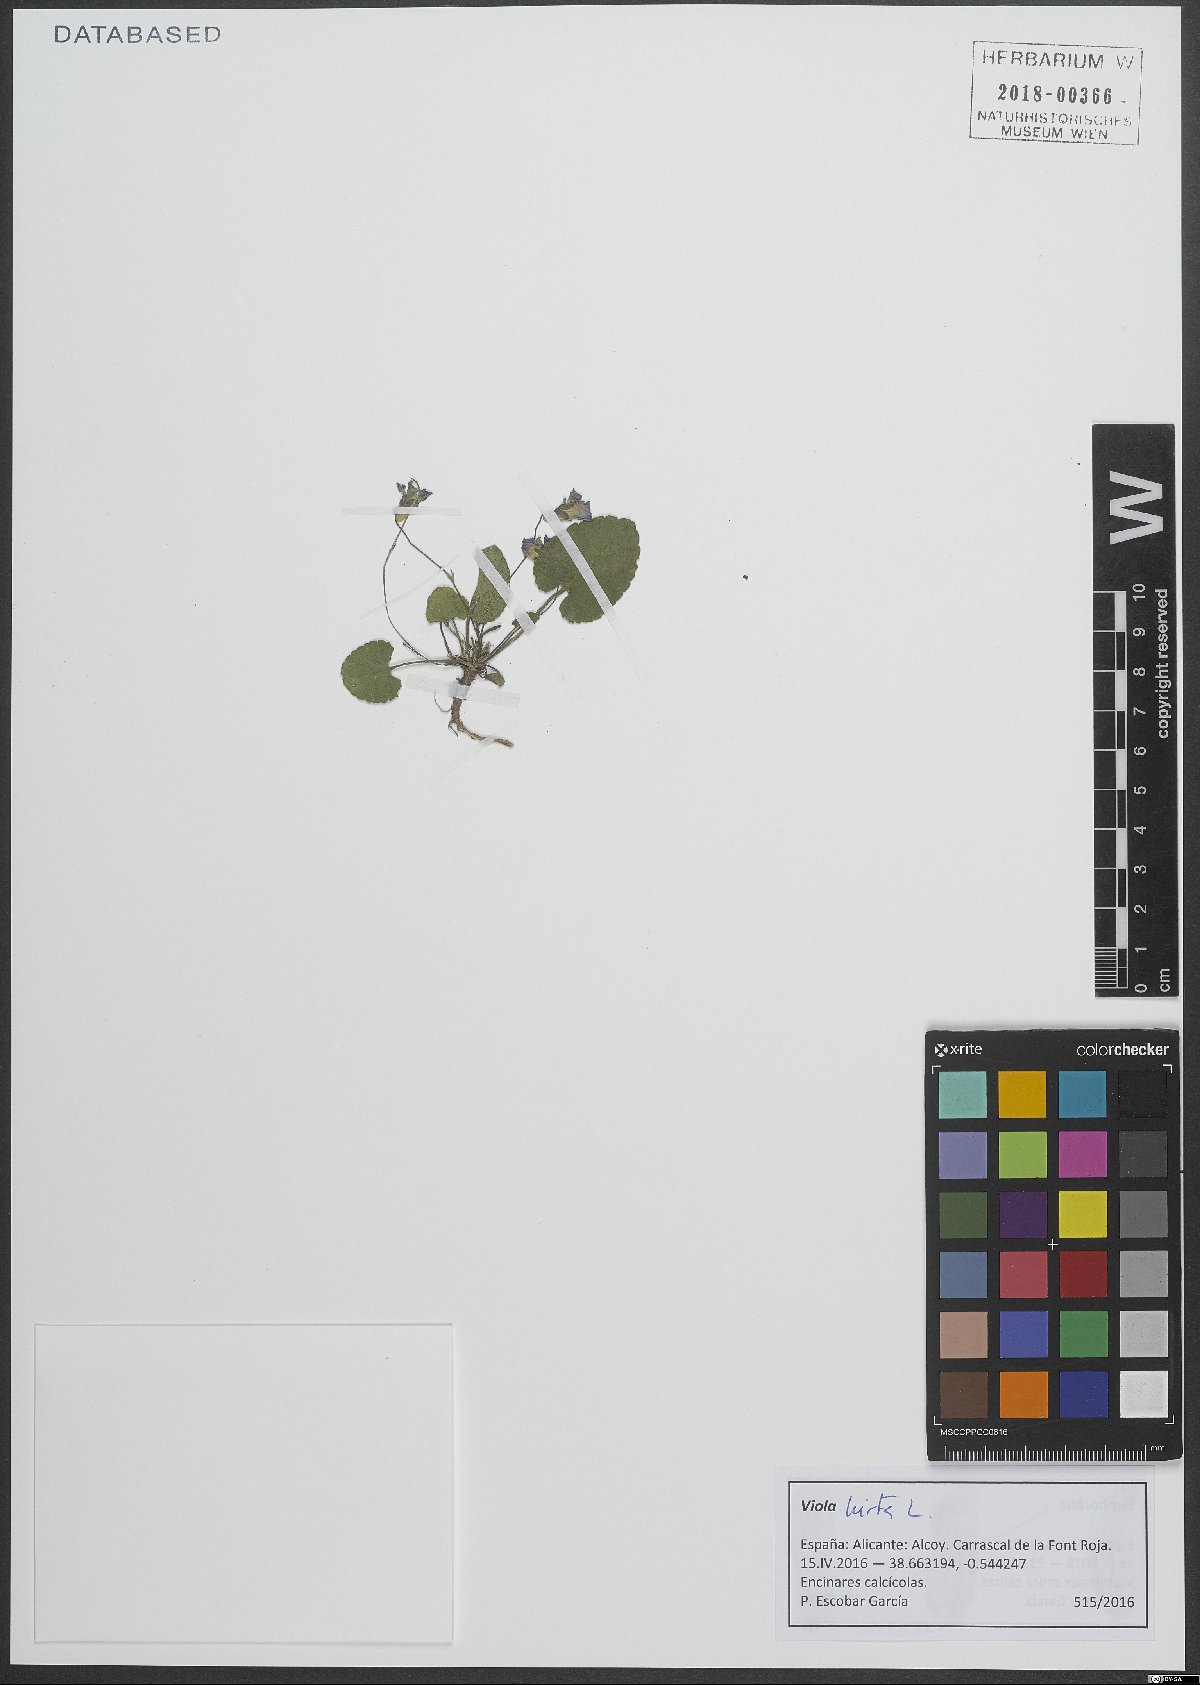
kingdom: Plantae
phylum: Tracheophyta
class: Magnoliopsida
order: Malpighiales
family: Violaceae
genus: Viola
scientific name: Viola hirta
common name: Hairy violet
